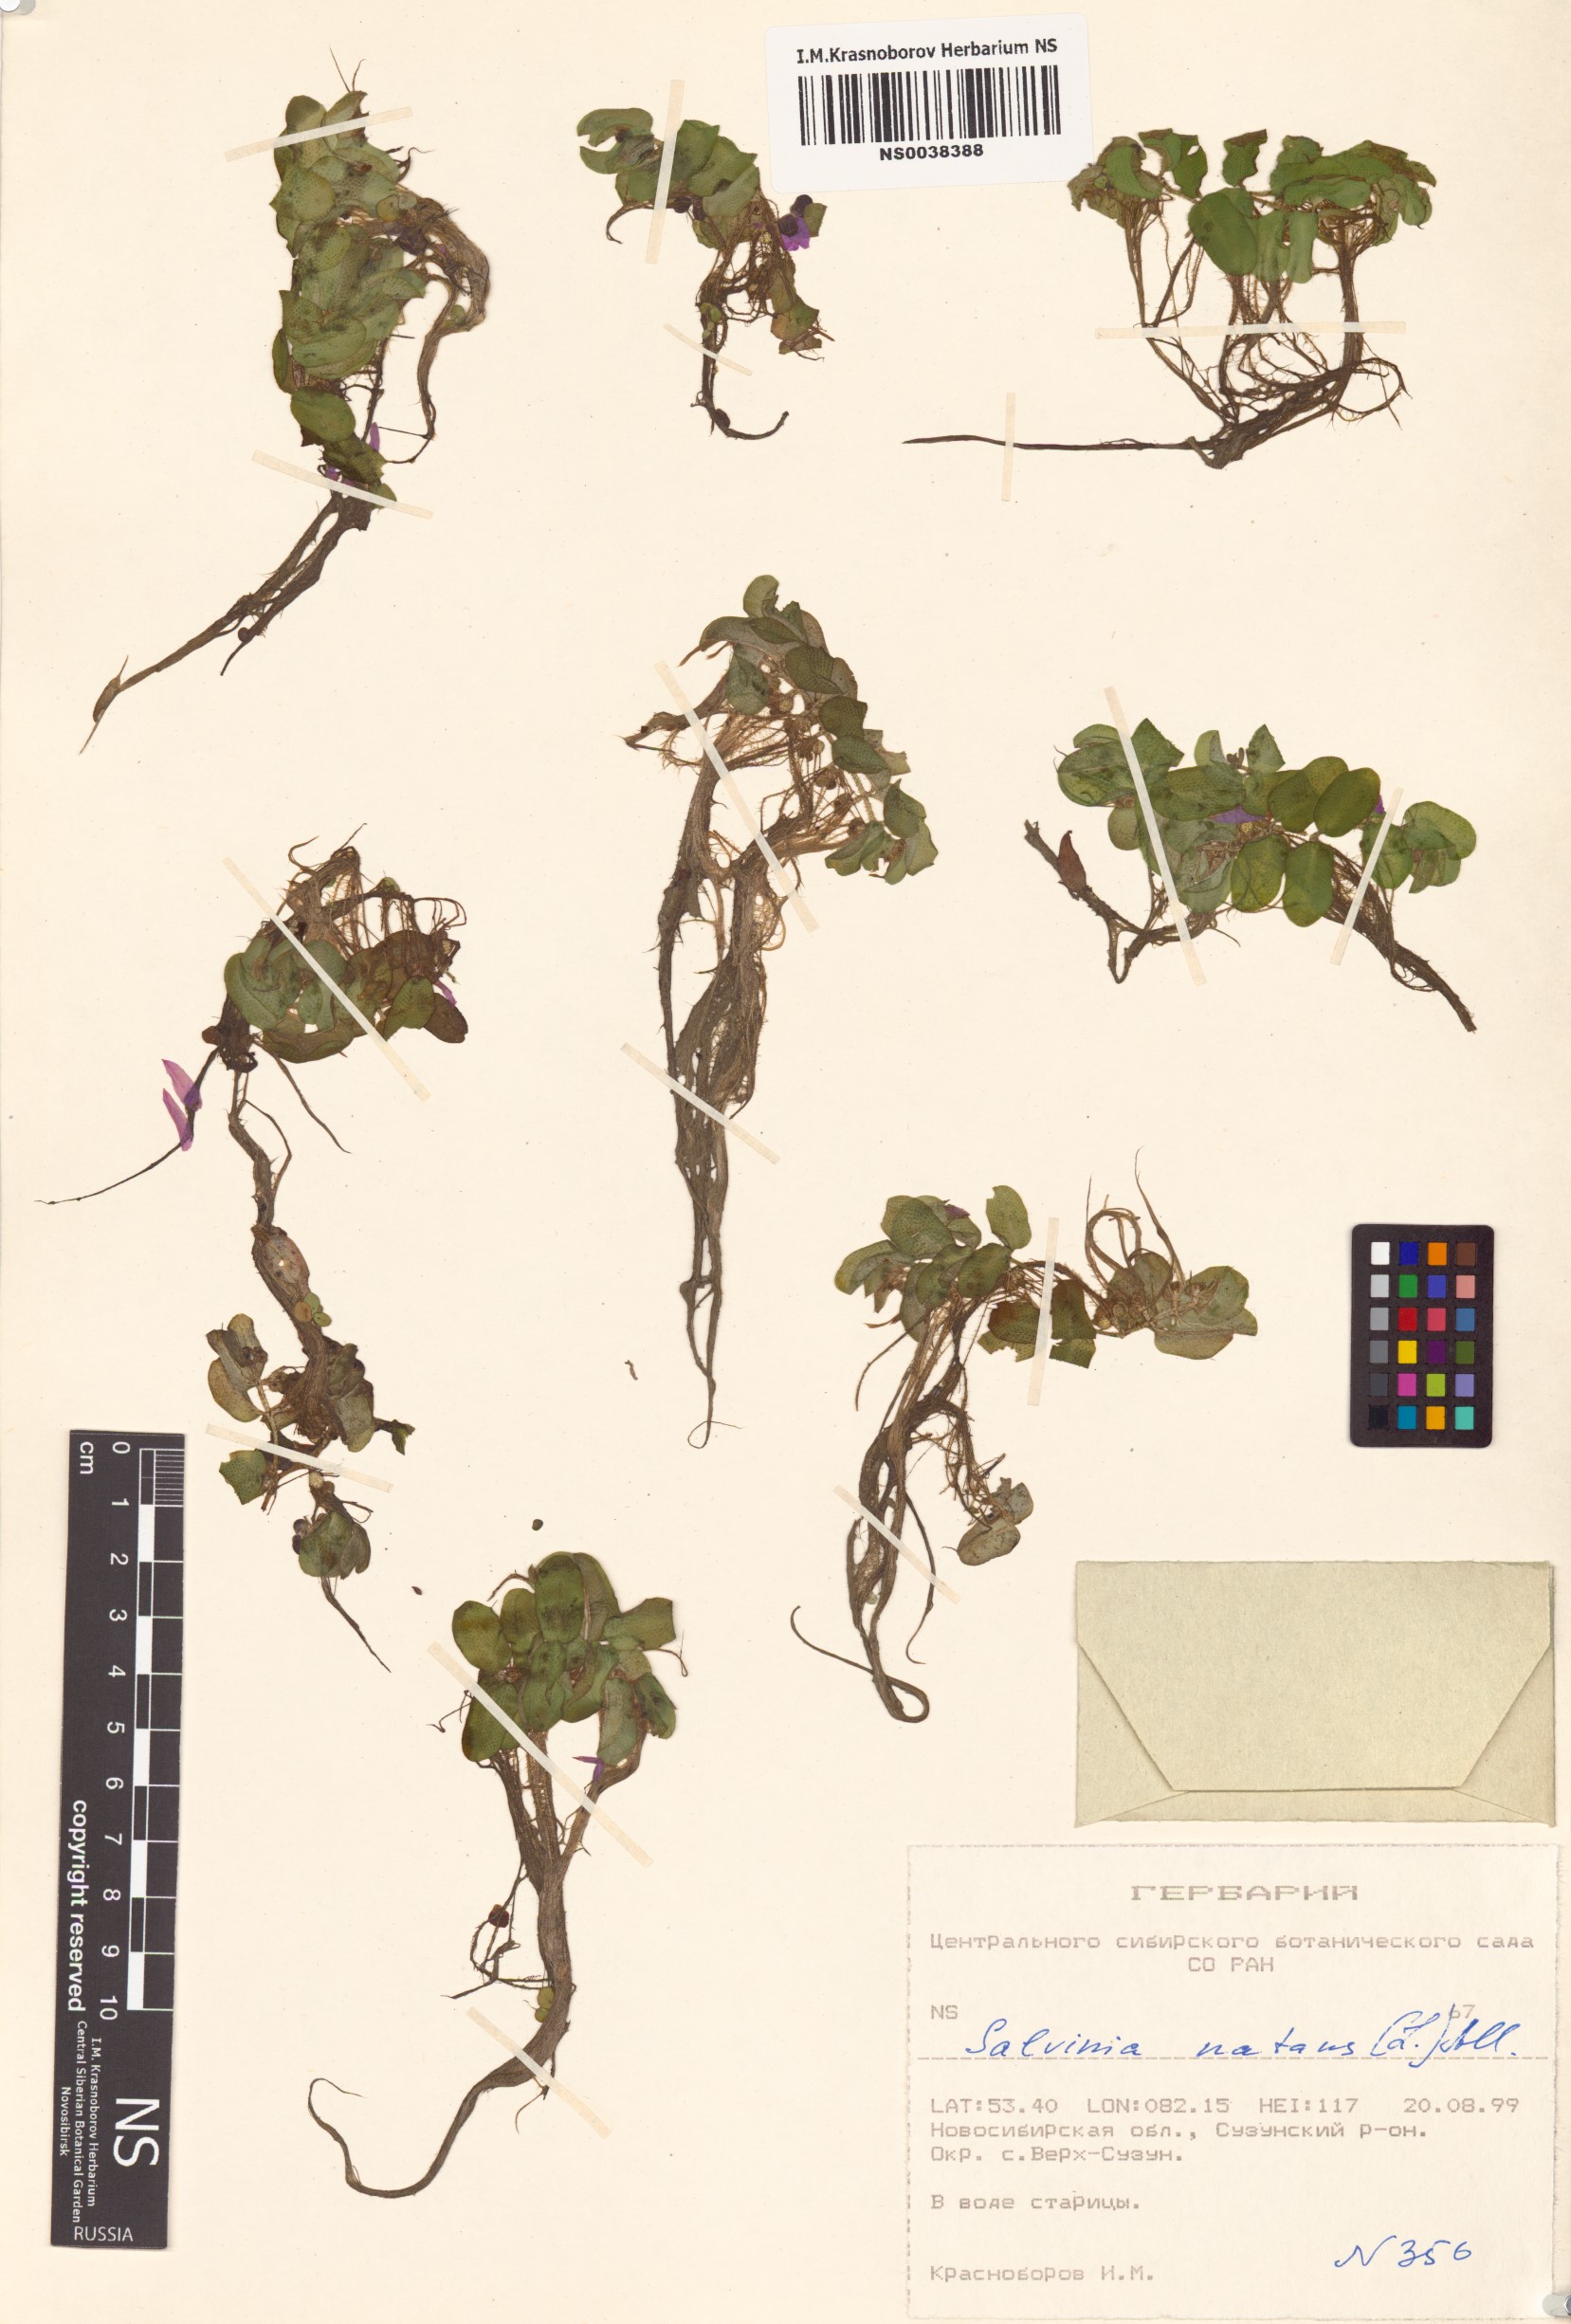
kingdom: Plantae
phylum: Tracheophyta
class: Polypodiopsida
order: Salviniales
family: Salviniaceae
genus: Salvinia
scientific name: Salvinia natans
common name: Floating fern
